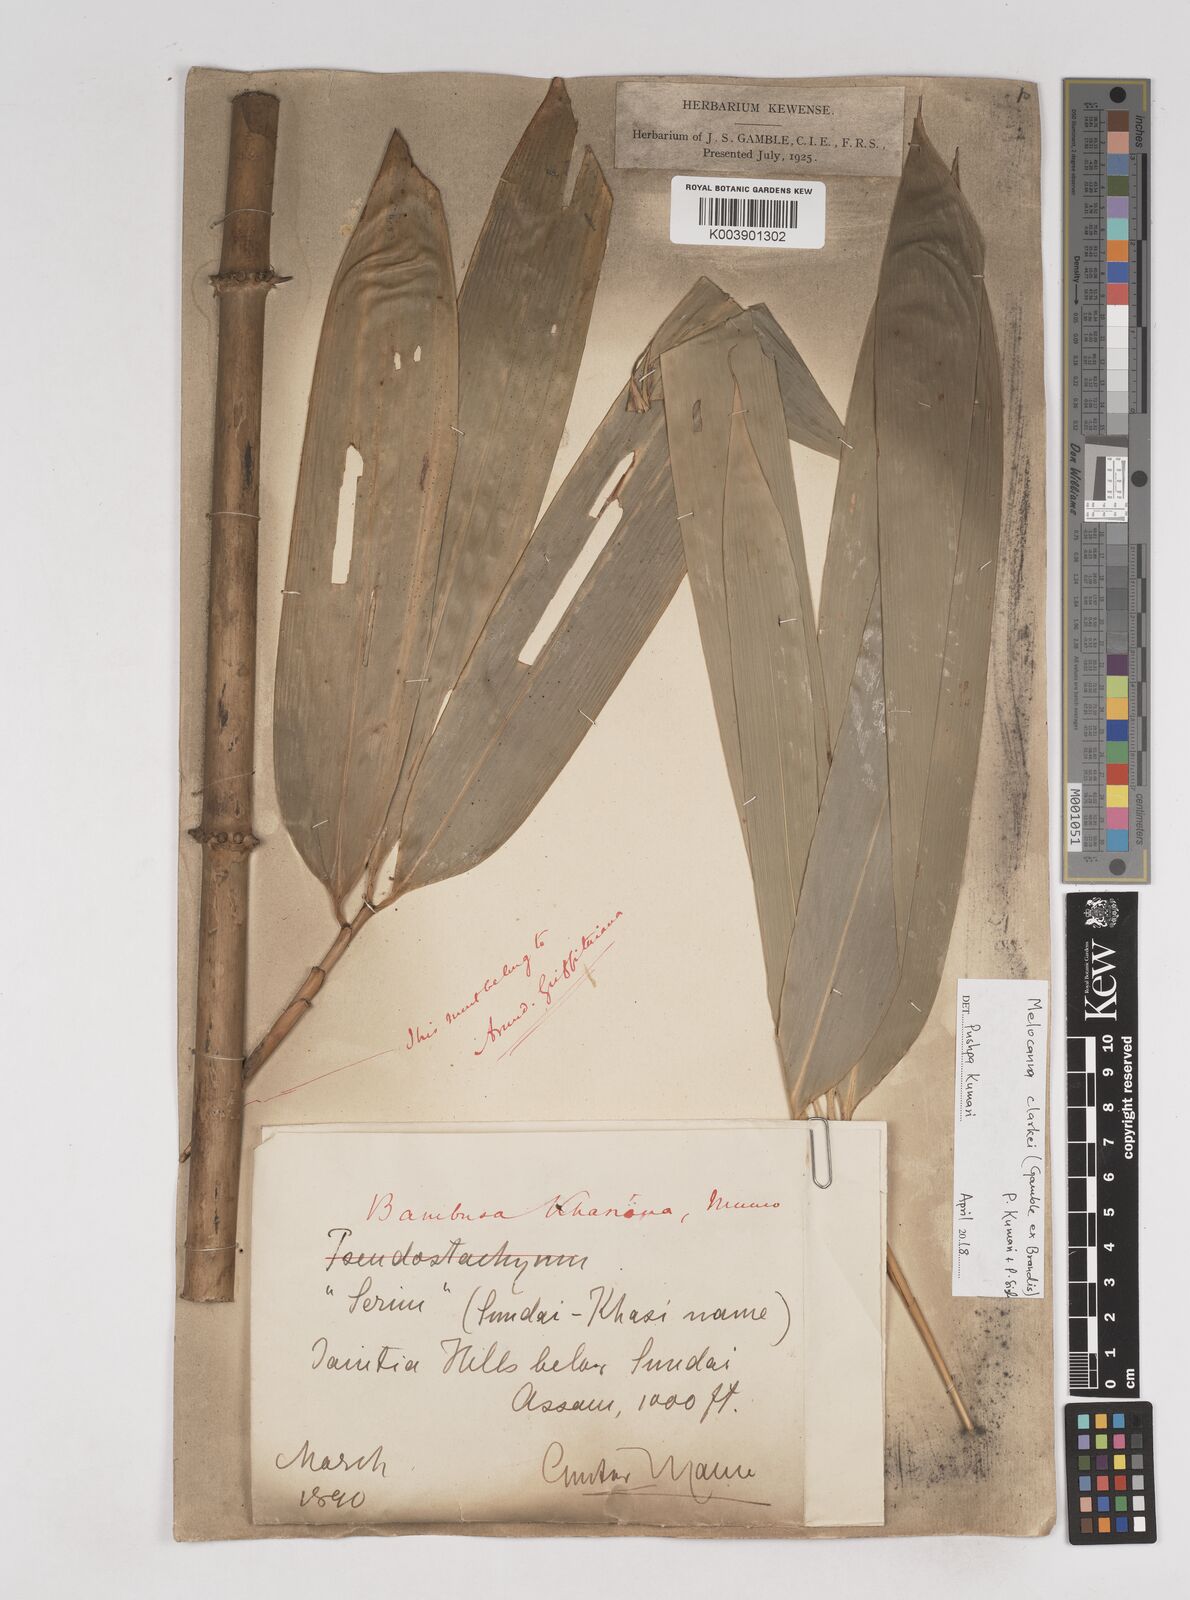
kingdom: Plantae
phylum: Tracheophyta
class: Liliopsida
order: Poales
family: Poaceae
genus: Melocanna
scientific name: Melocanna clarkei
